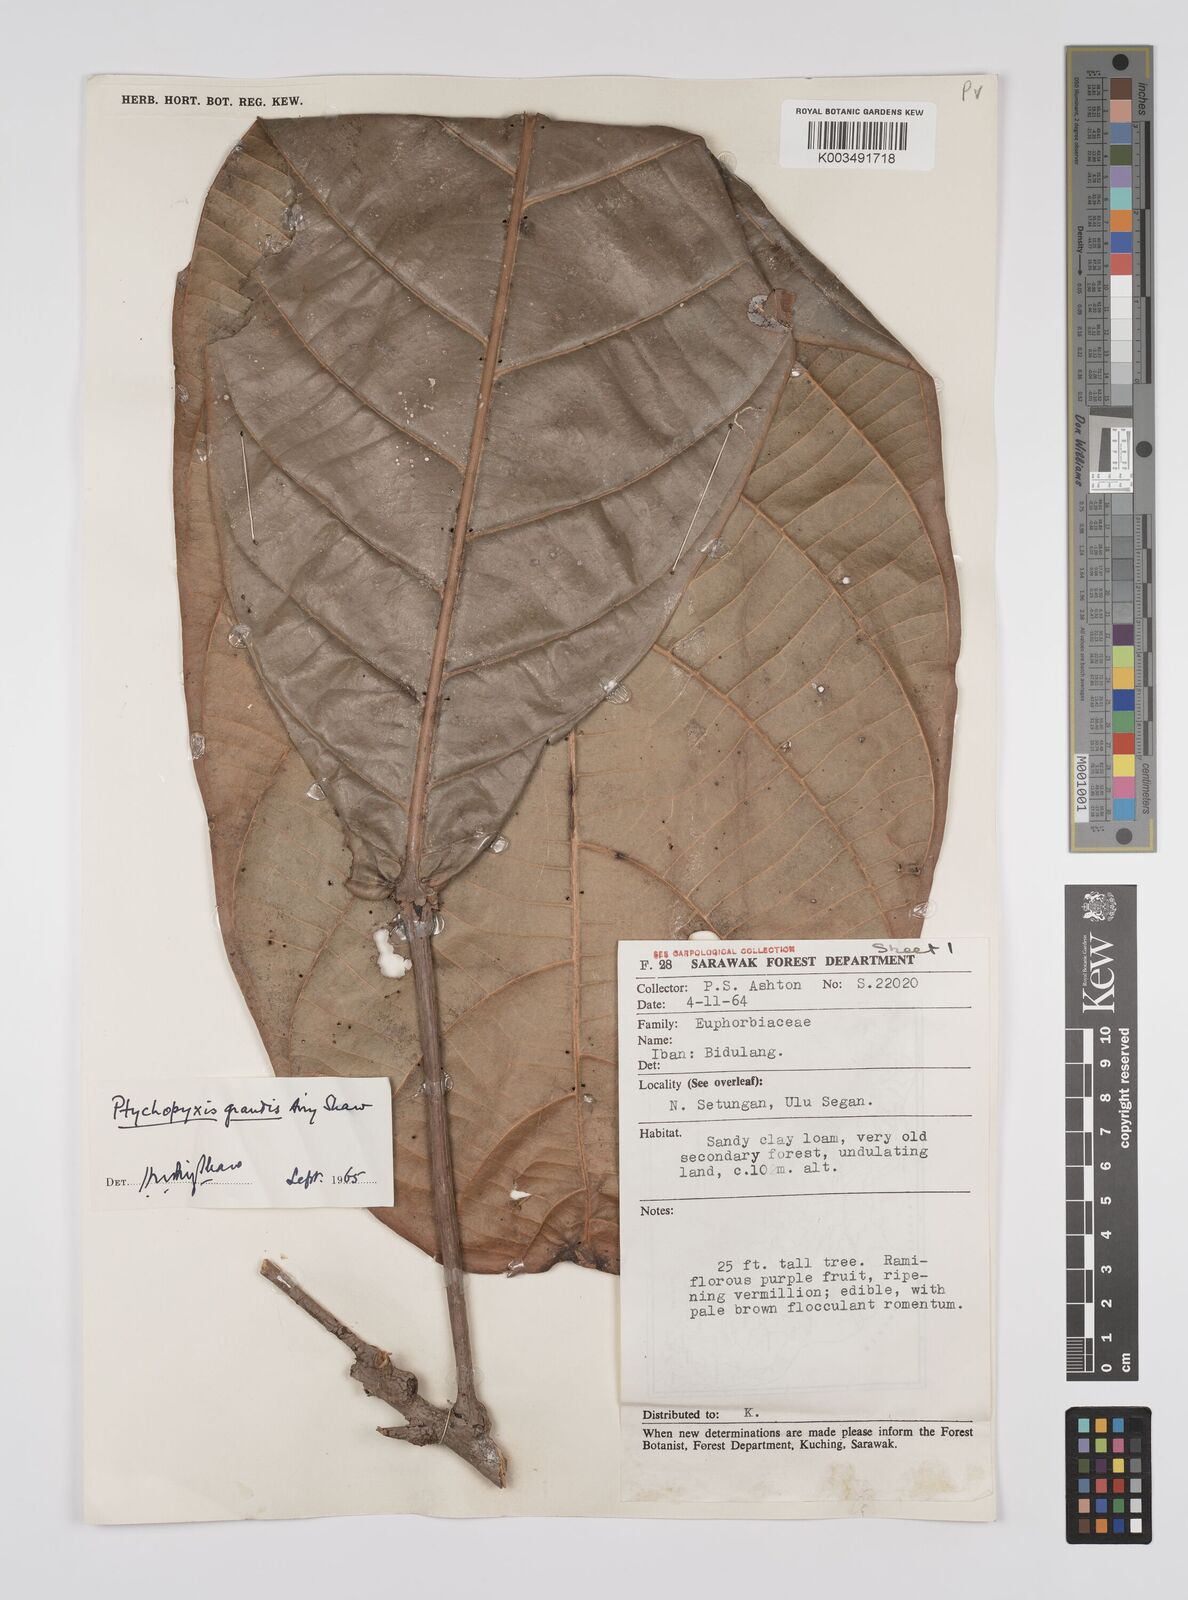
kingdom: Plantae
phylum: Tracheophyta
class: Magnoliopsida
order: Malpighiales
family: Euphorbiaceae
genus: Ptychopyxis
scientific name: Ptychopyxis grandis
